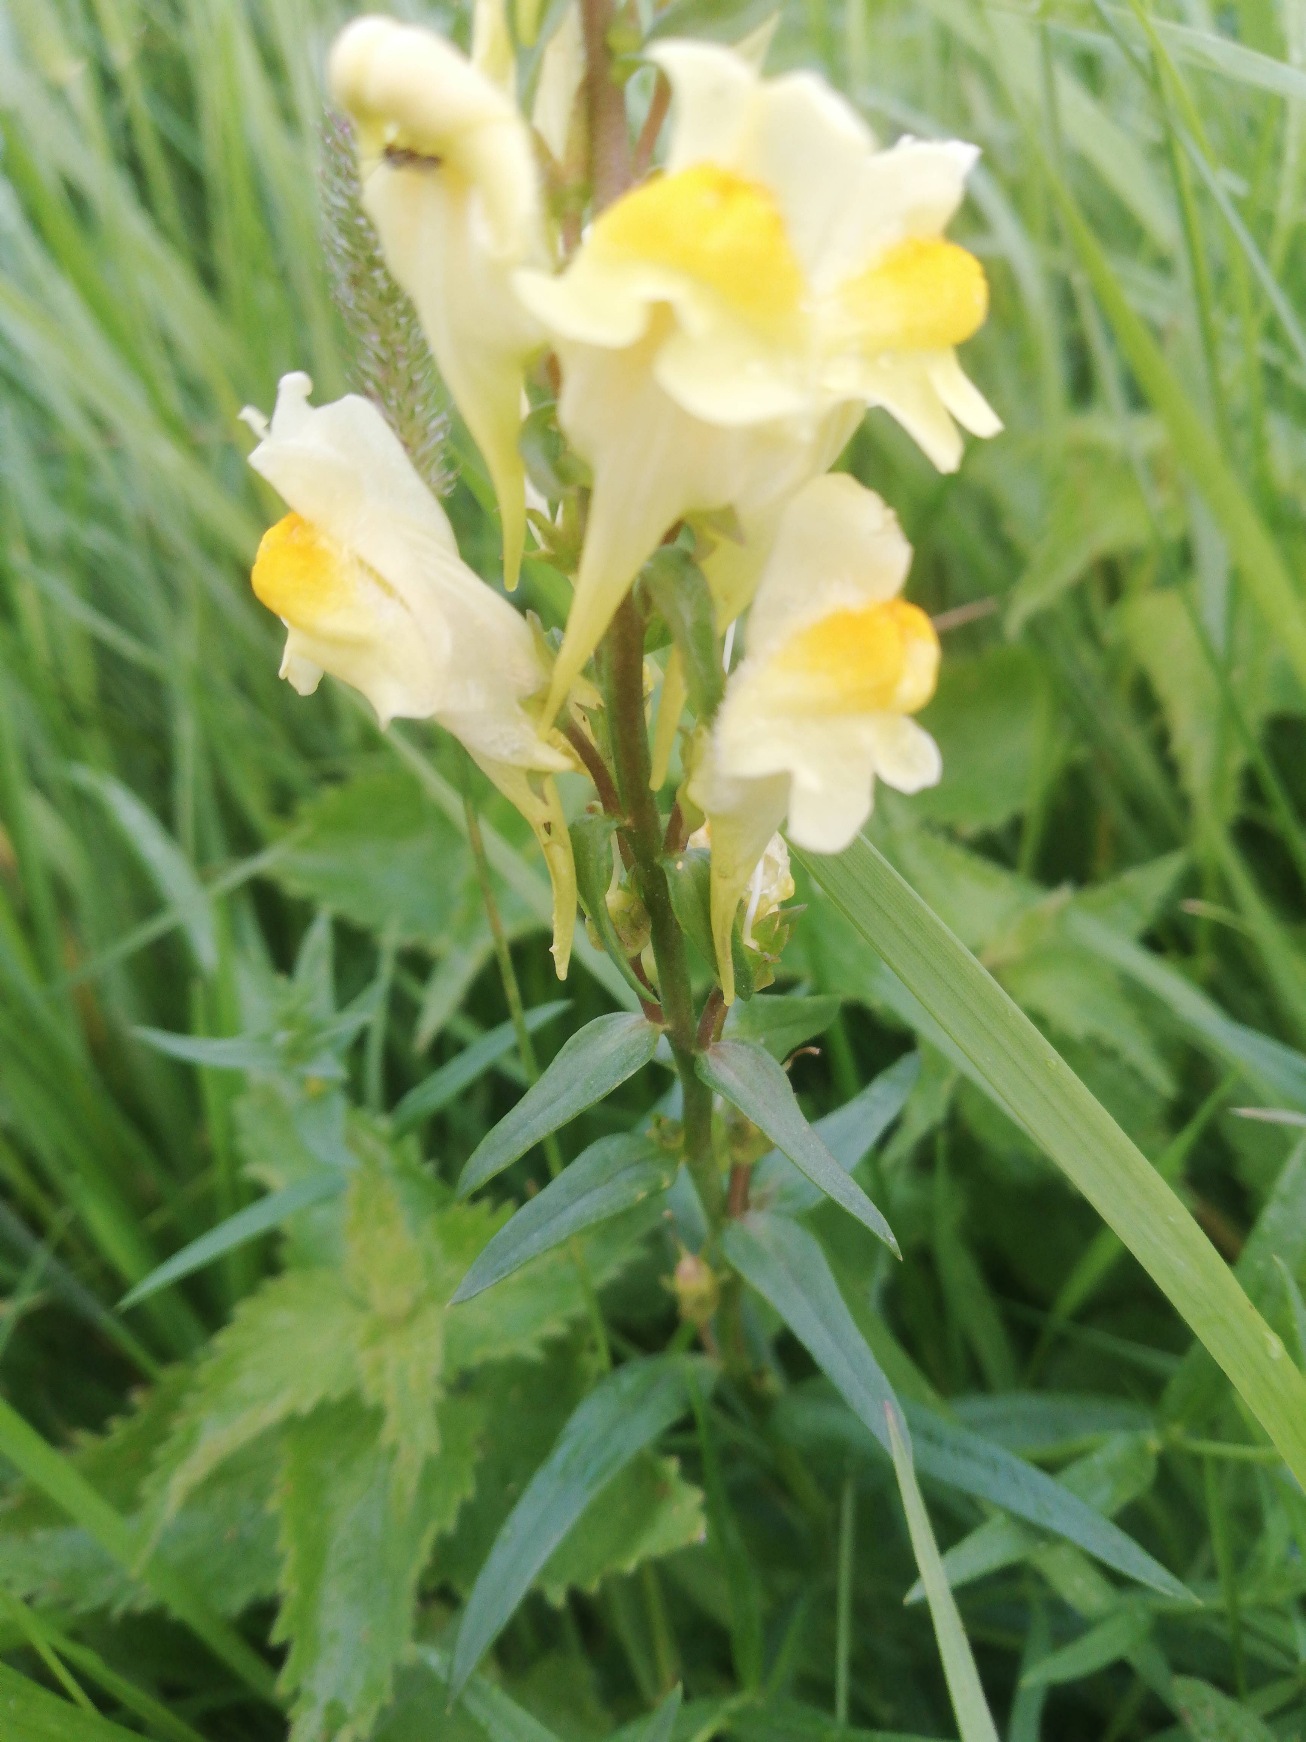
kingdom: Plantae
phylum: Tracheophyta
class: Magnoliopsida
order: Lamiales
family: Plantaginaceae
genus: Linaria
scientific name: Linaria vulgaris
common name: Almindelig torskemund
